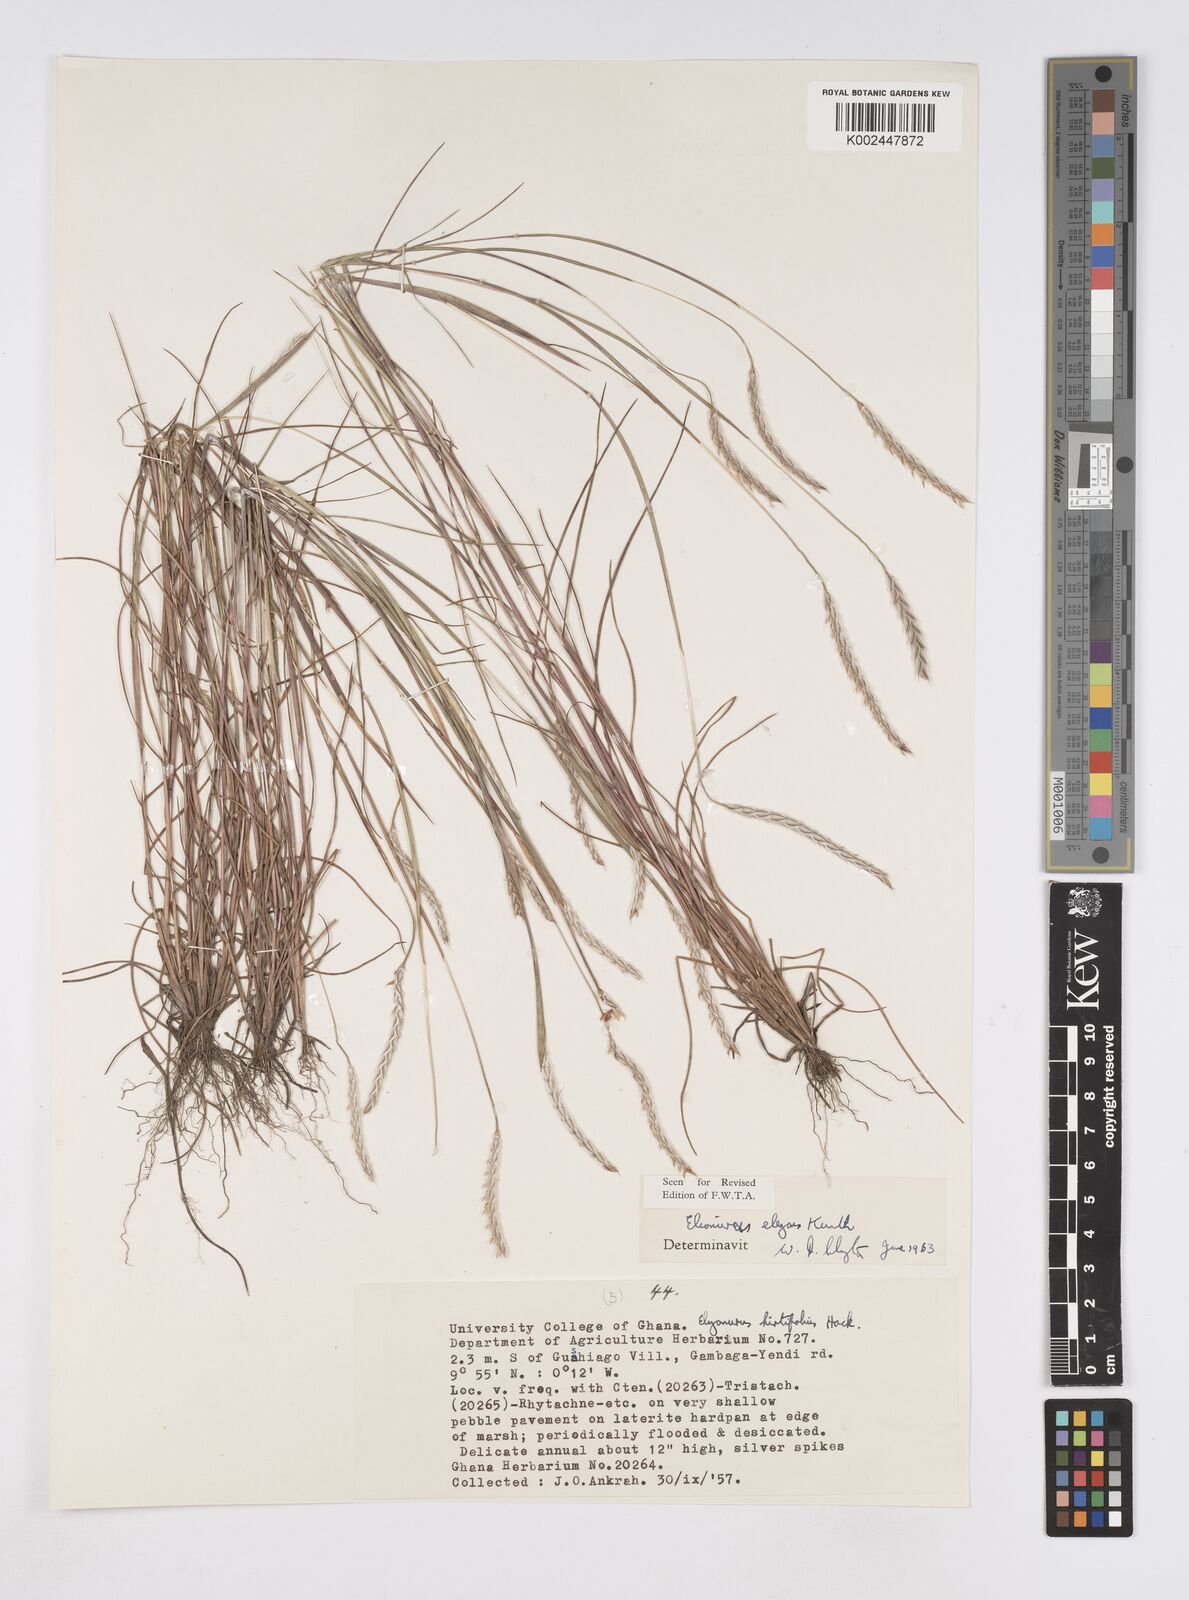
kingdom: Plantae
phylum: Tracheophyta
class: Liliopsida
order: Poales
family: Poaceae
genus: Elionurus
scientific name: Elionurus elegans
